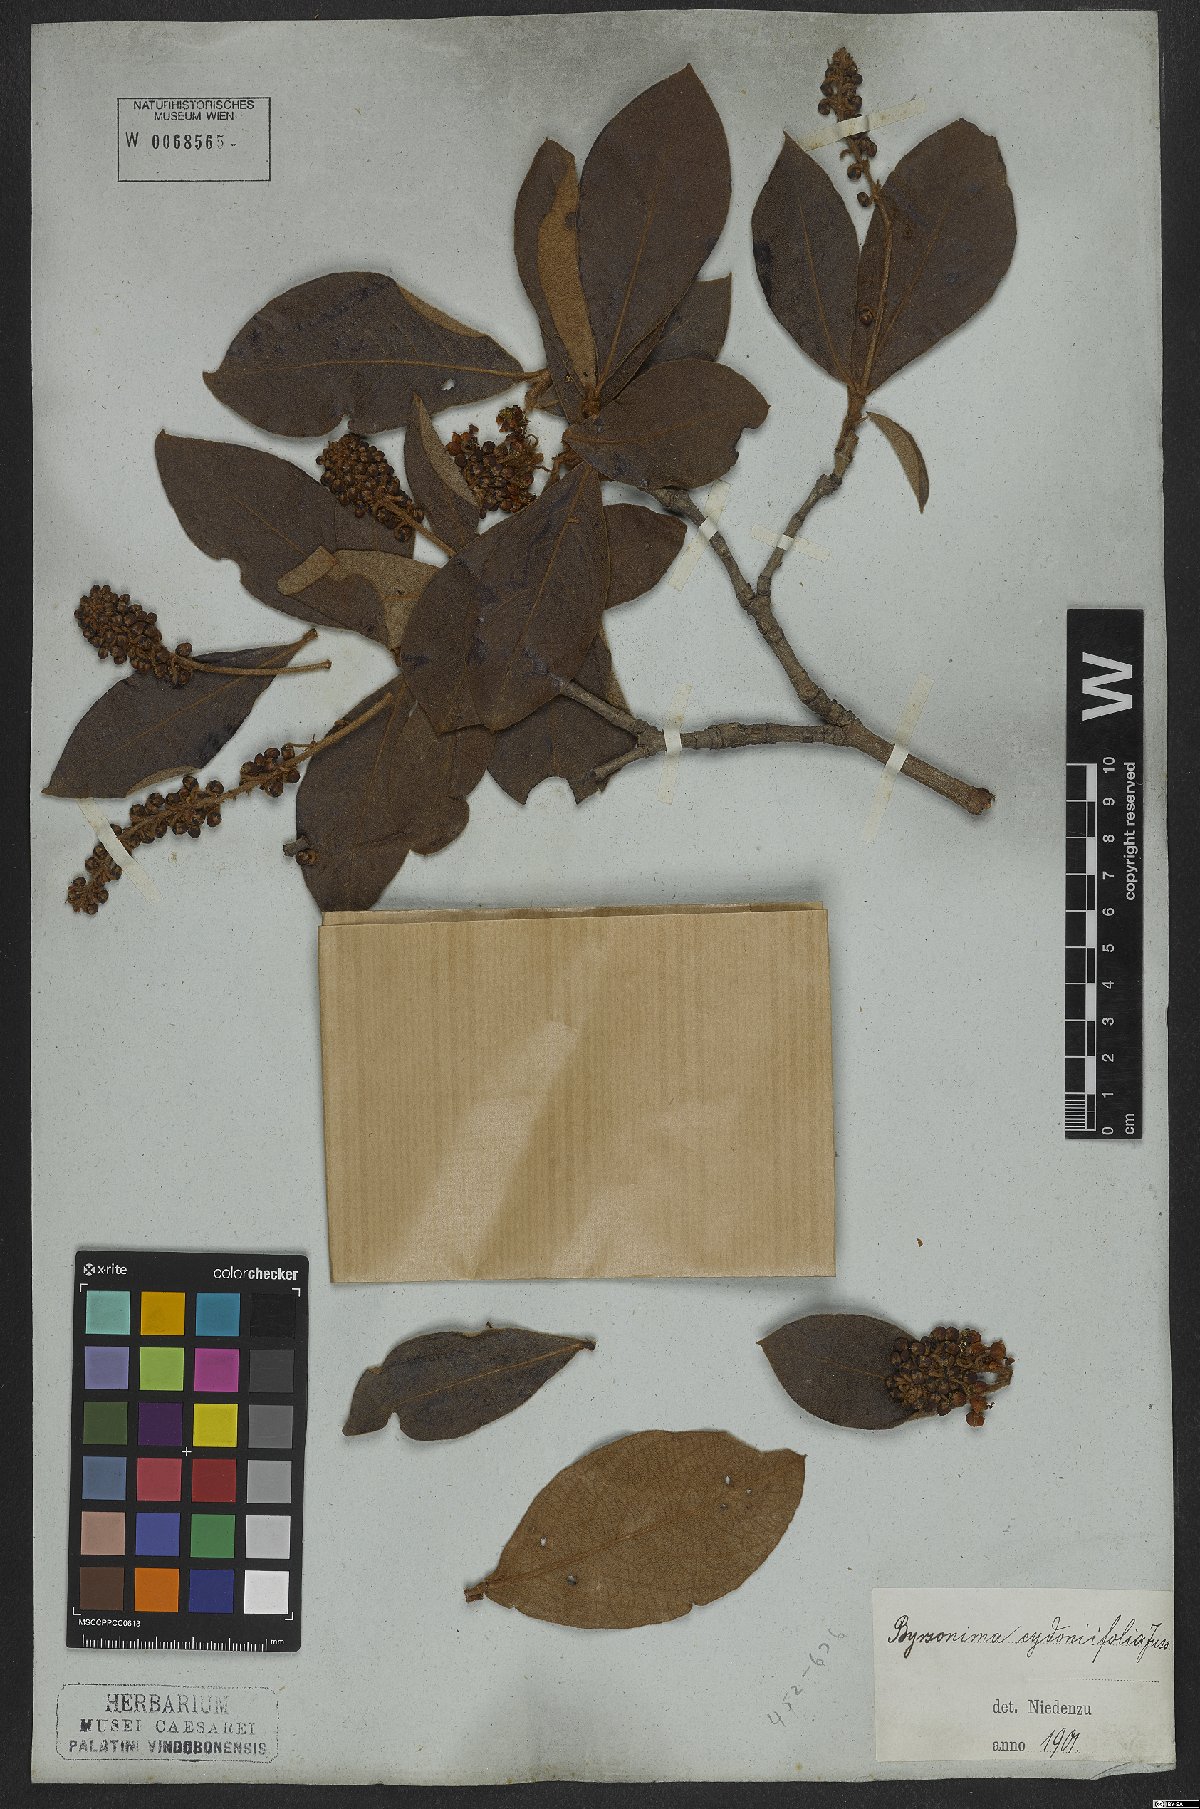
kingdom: Plantae
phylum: Tracheophyta
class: Magnoliopsida
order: Malpighiales
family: Malpighiaceae
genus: Byrsonima
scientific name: Byrsonima cydoniifolia
